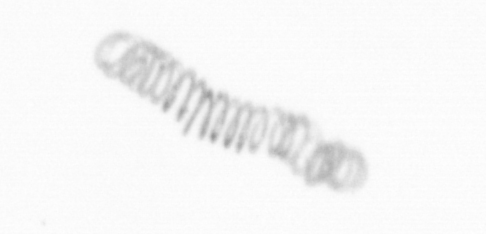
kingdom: Chromista
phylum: Ochrophyta
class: Bacillariophyceae
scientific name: Bacillariophyceae
